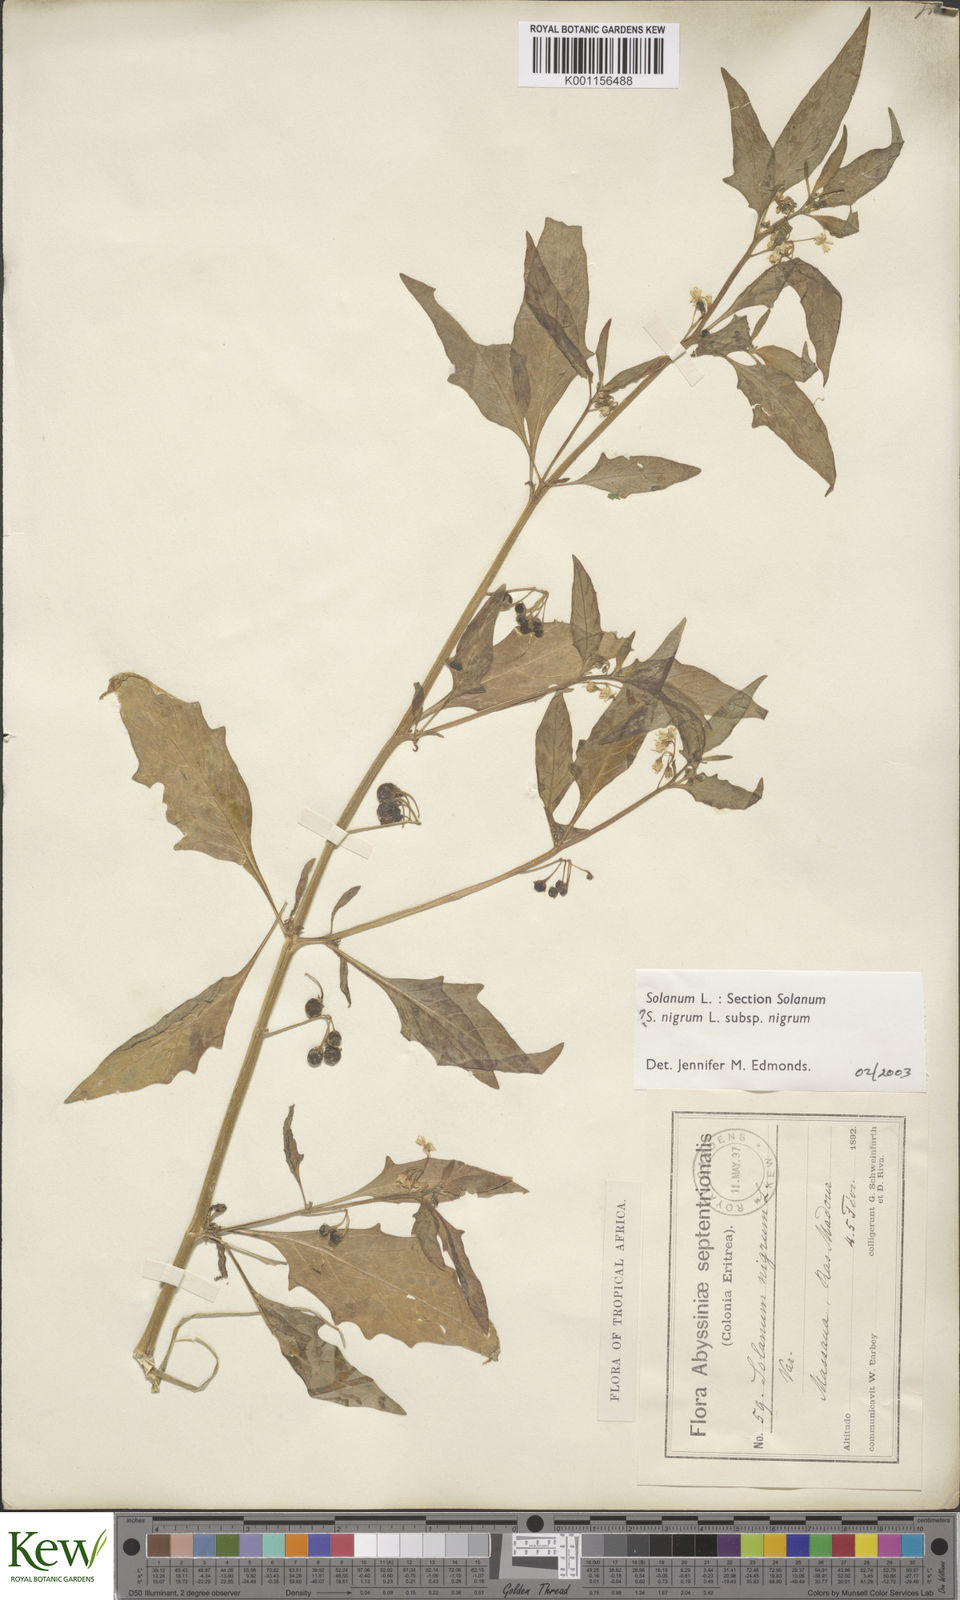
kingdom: Plantae
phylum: Tracheophyta
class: Magnoliopsida
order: Solanales
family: Solanaceae
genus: Solanum
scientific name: Solanum tarderemotum
